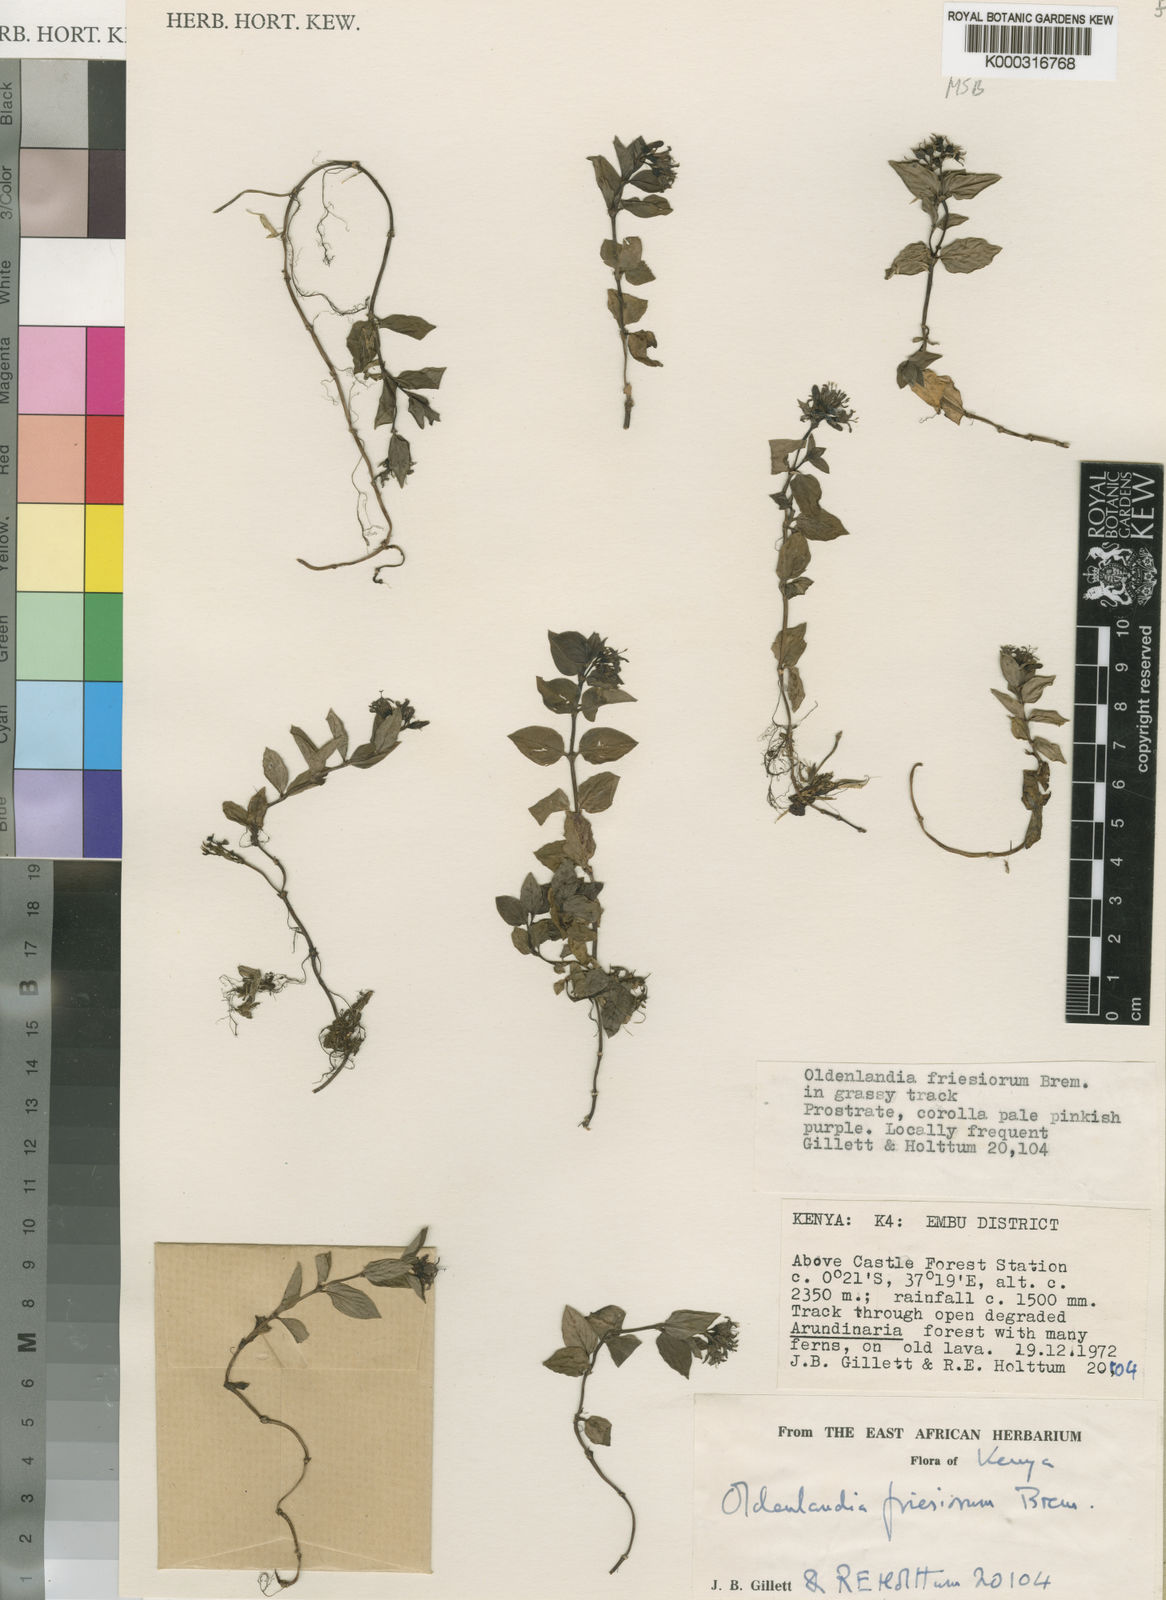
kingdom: Plantae
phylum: Tracheophyta
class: Magnoliopsida
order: Gentianales
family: Rubiaceae
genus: Oldenlandia
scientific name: Oldenlandia friesiorum
